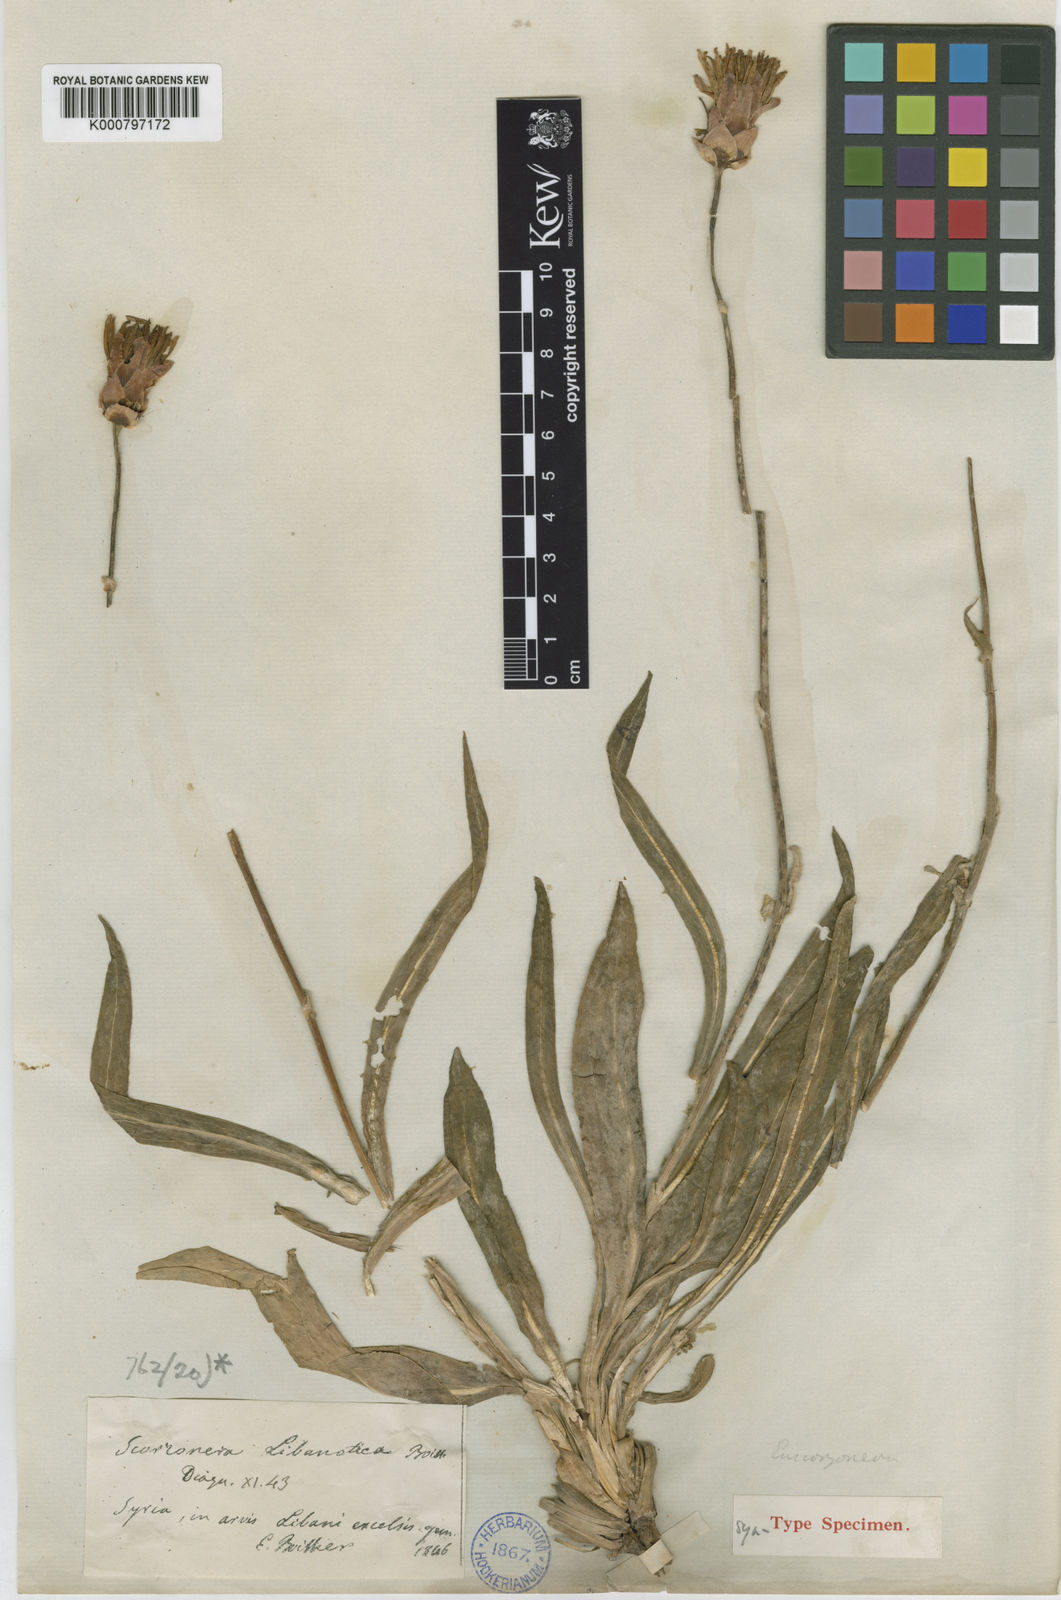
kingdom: Plantae
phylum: Tracheophyta
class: Magnoliopsida
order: Asterales
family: Asteraceae
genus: Aslia
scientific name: Aslia libanotica
